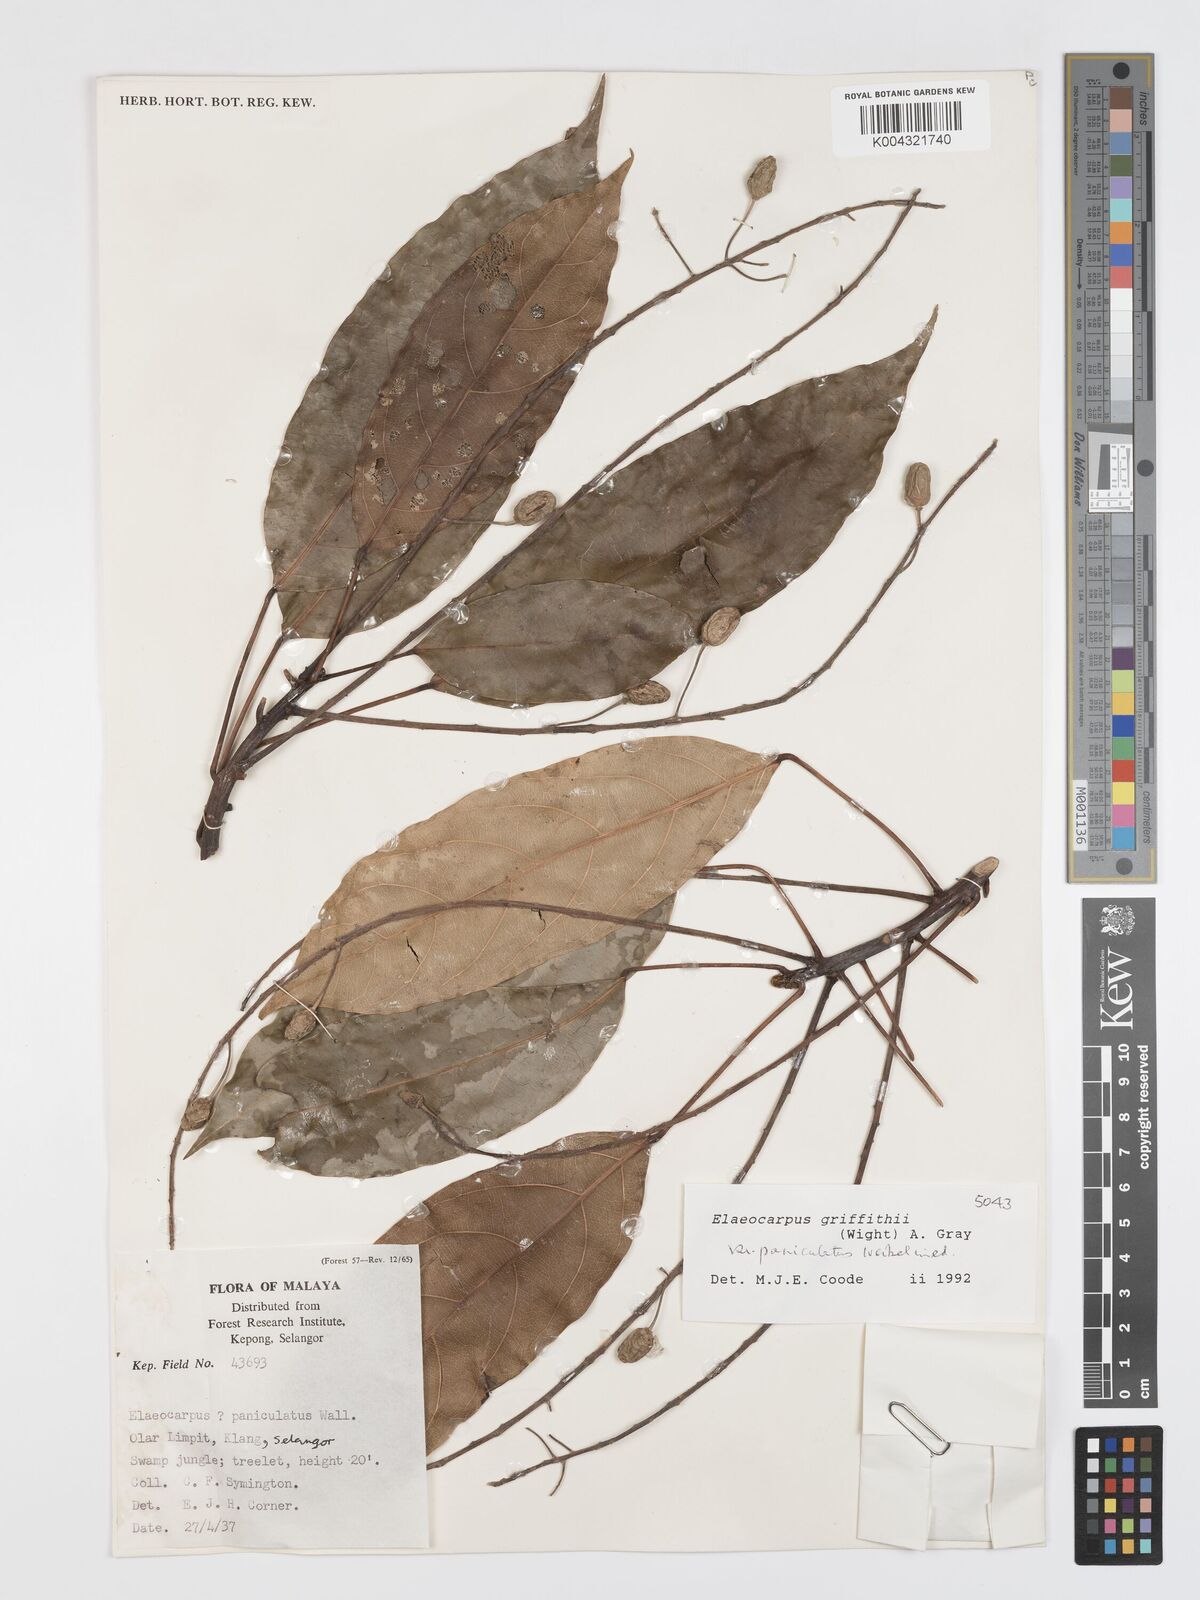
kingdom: Plantae
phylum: Tracheophyta
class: Magnoliopsida
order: Oxalidales
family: Elaeocarpaceae
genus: Elaeocarpus
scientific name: Elaeocarpus griffithii
